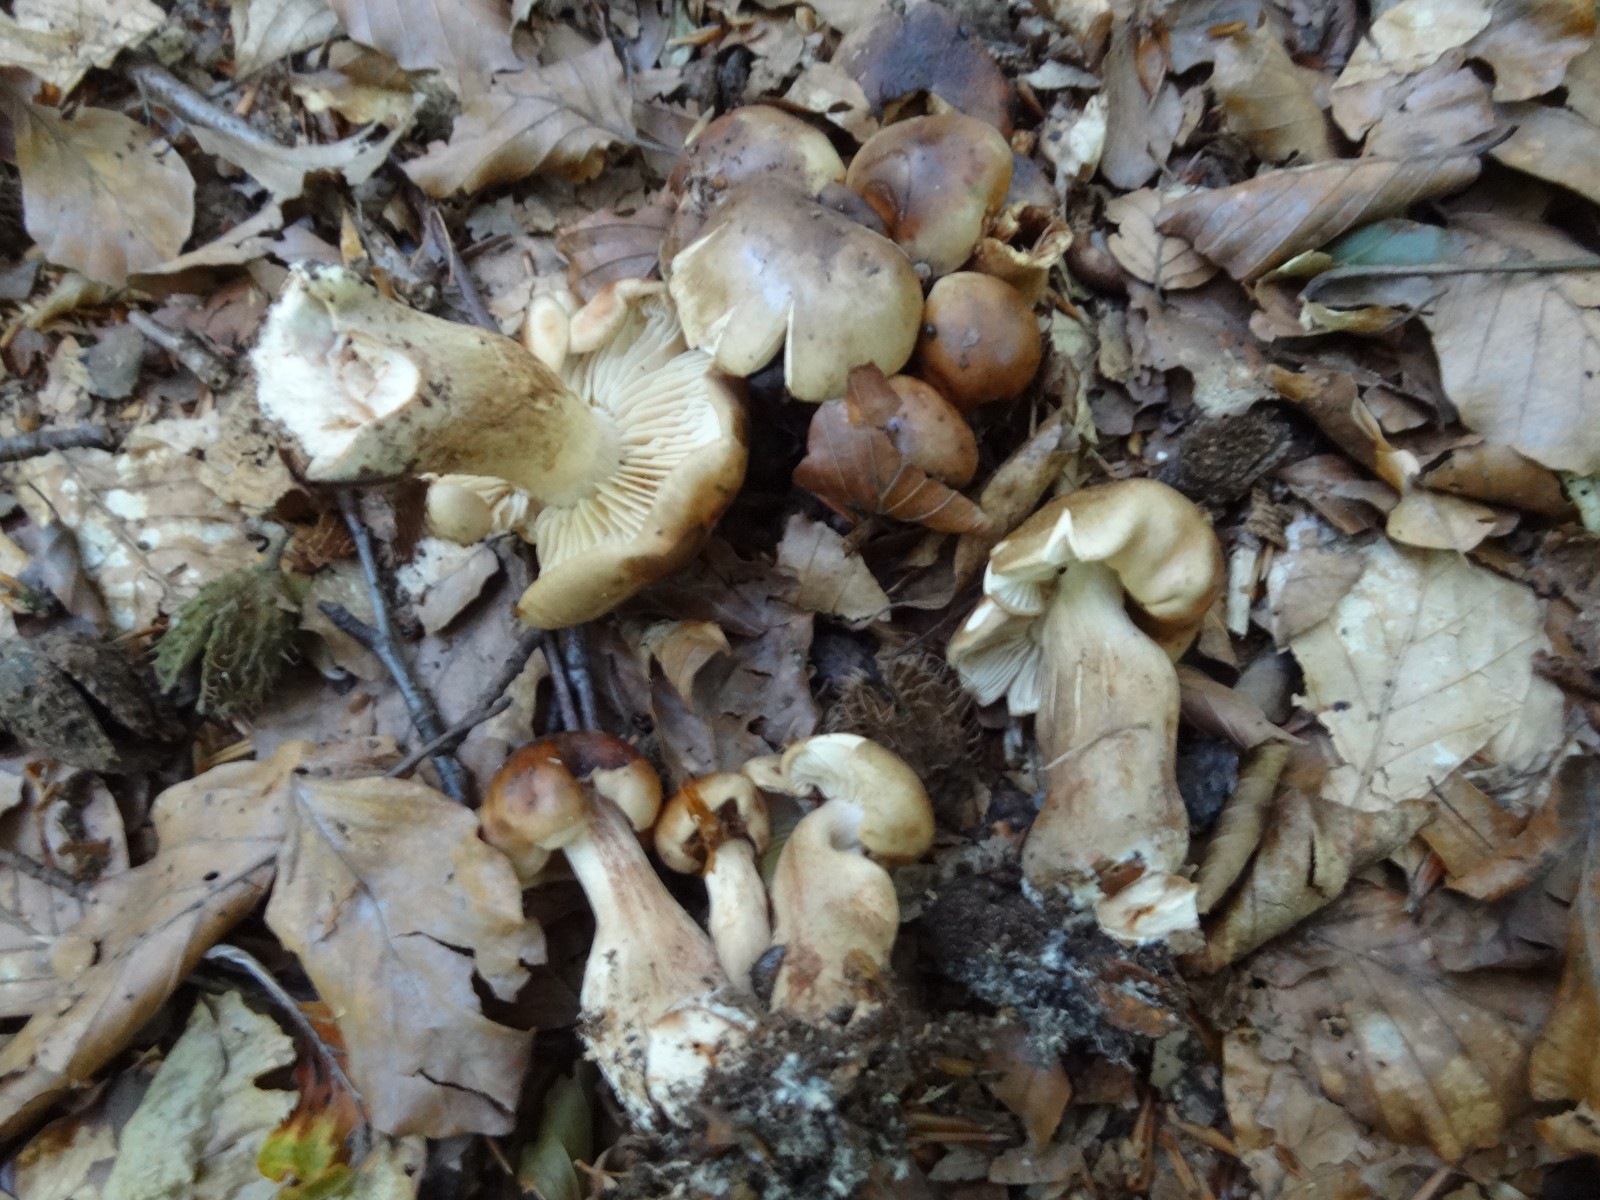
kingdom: Fungi
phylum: Basidiomycota
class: Agaricomycetes
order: Agaricales
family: Tricholomataceae
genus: Tricholoma
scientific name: Tricholoma ustale
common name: sveden ridderhat
